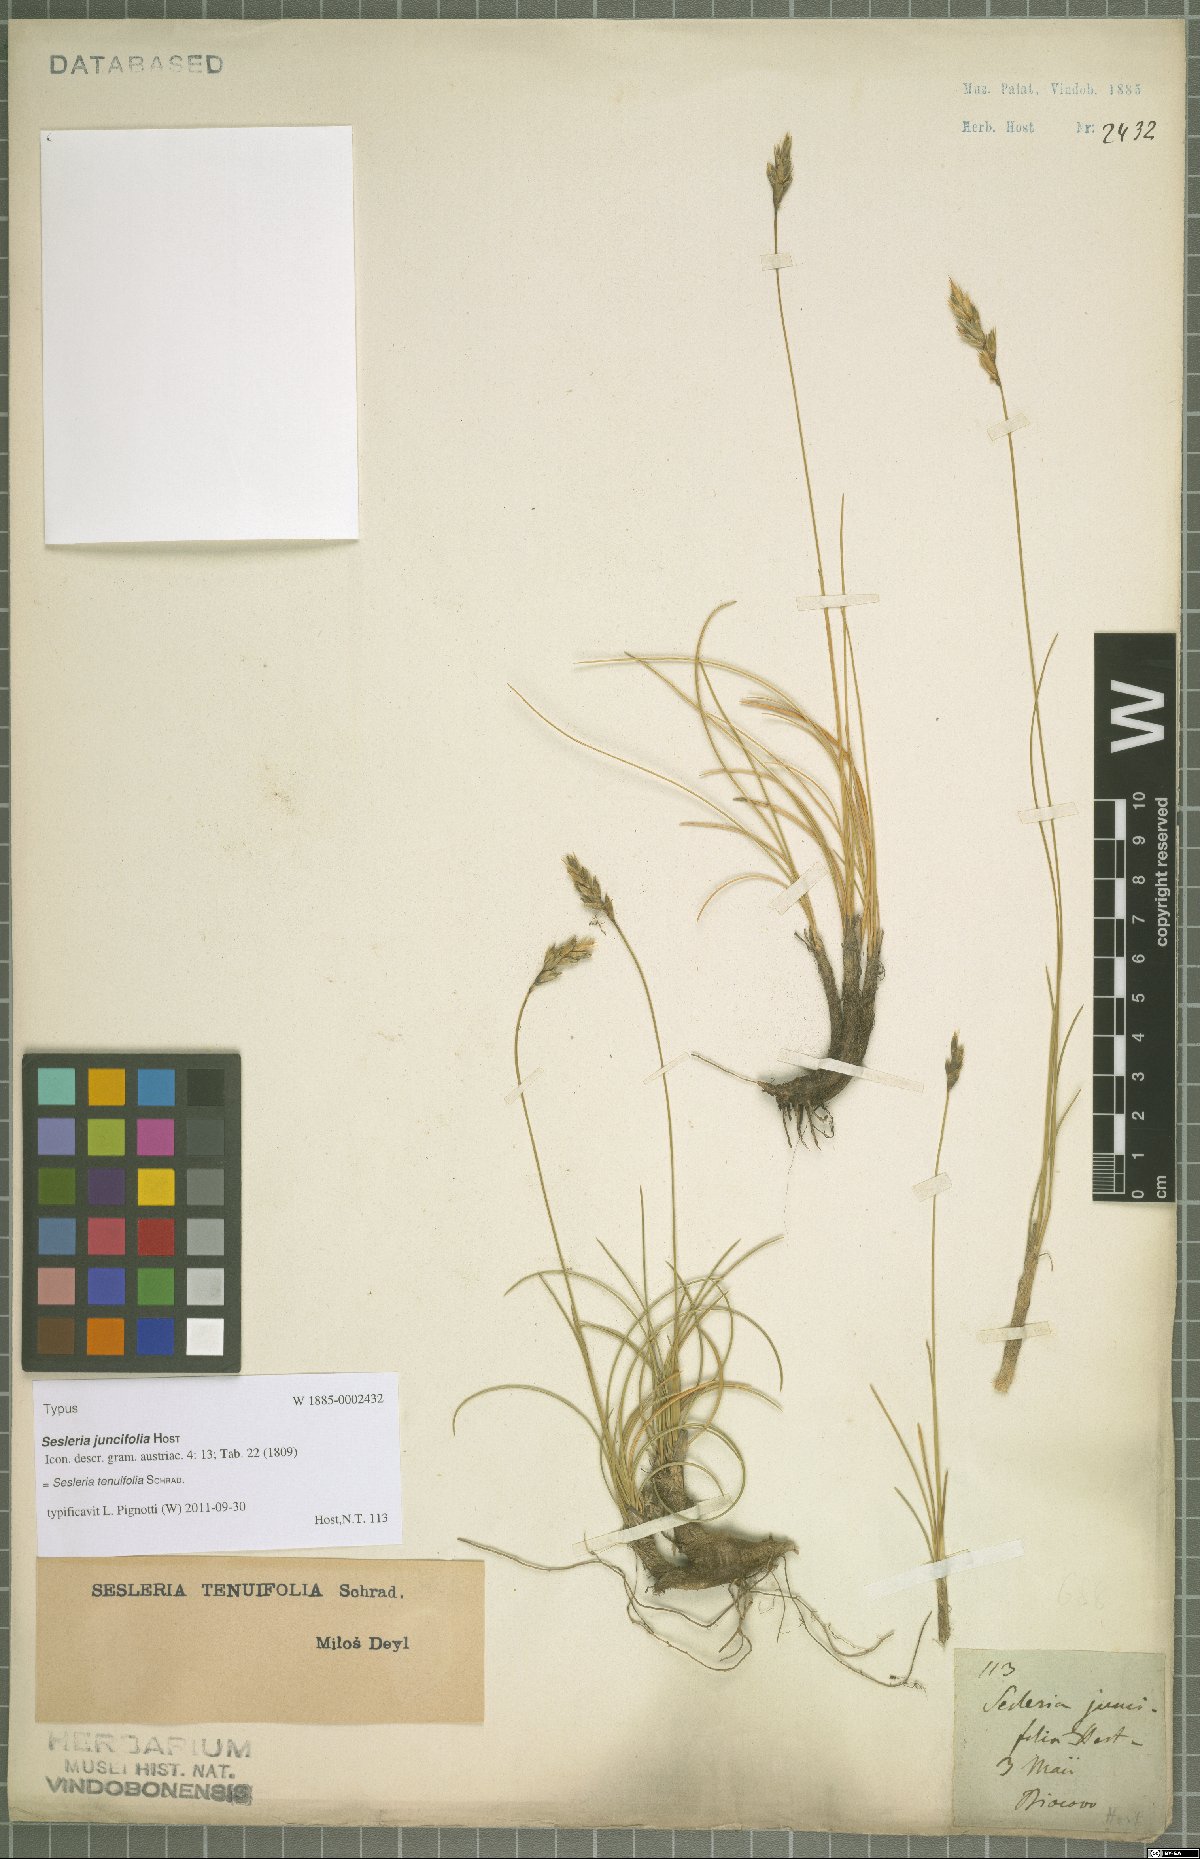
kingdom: Plantae
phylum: Tracheophyta
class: Liliopsida
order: Poales
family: Poaceae
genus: Sesleria
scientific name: Sesleria juncifolia
